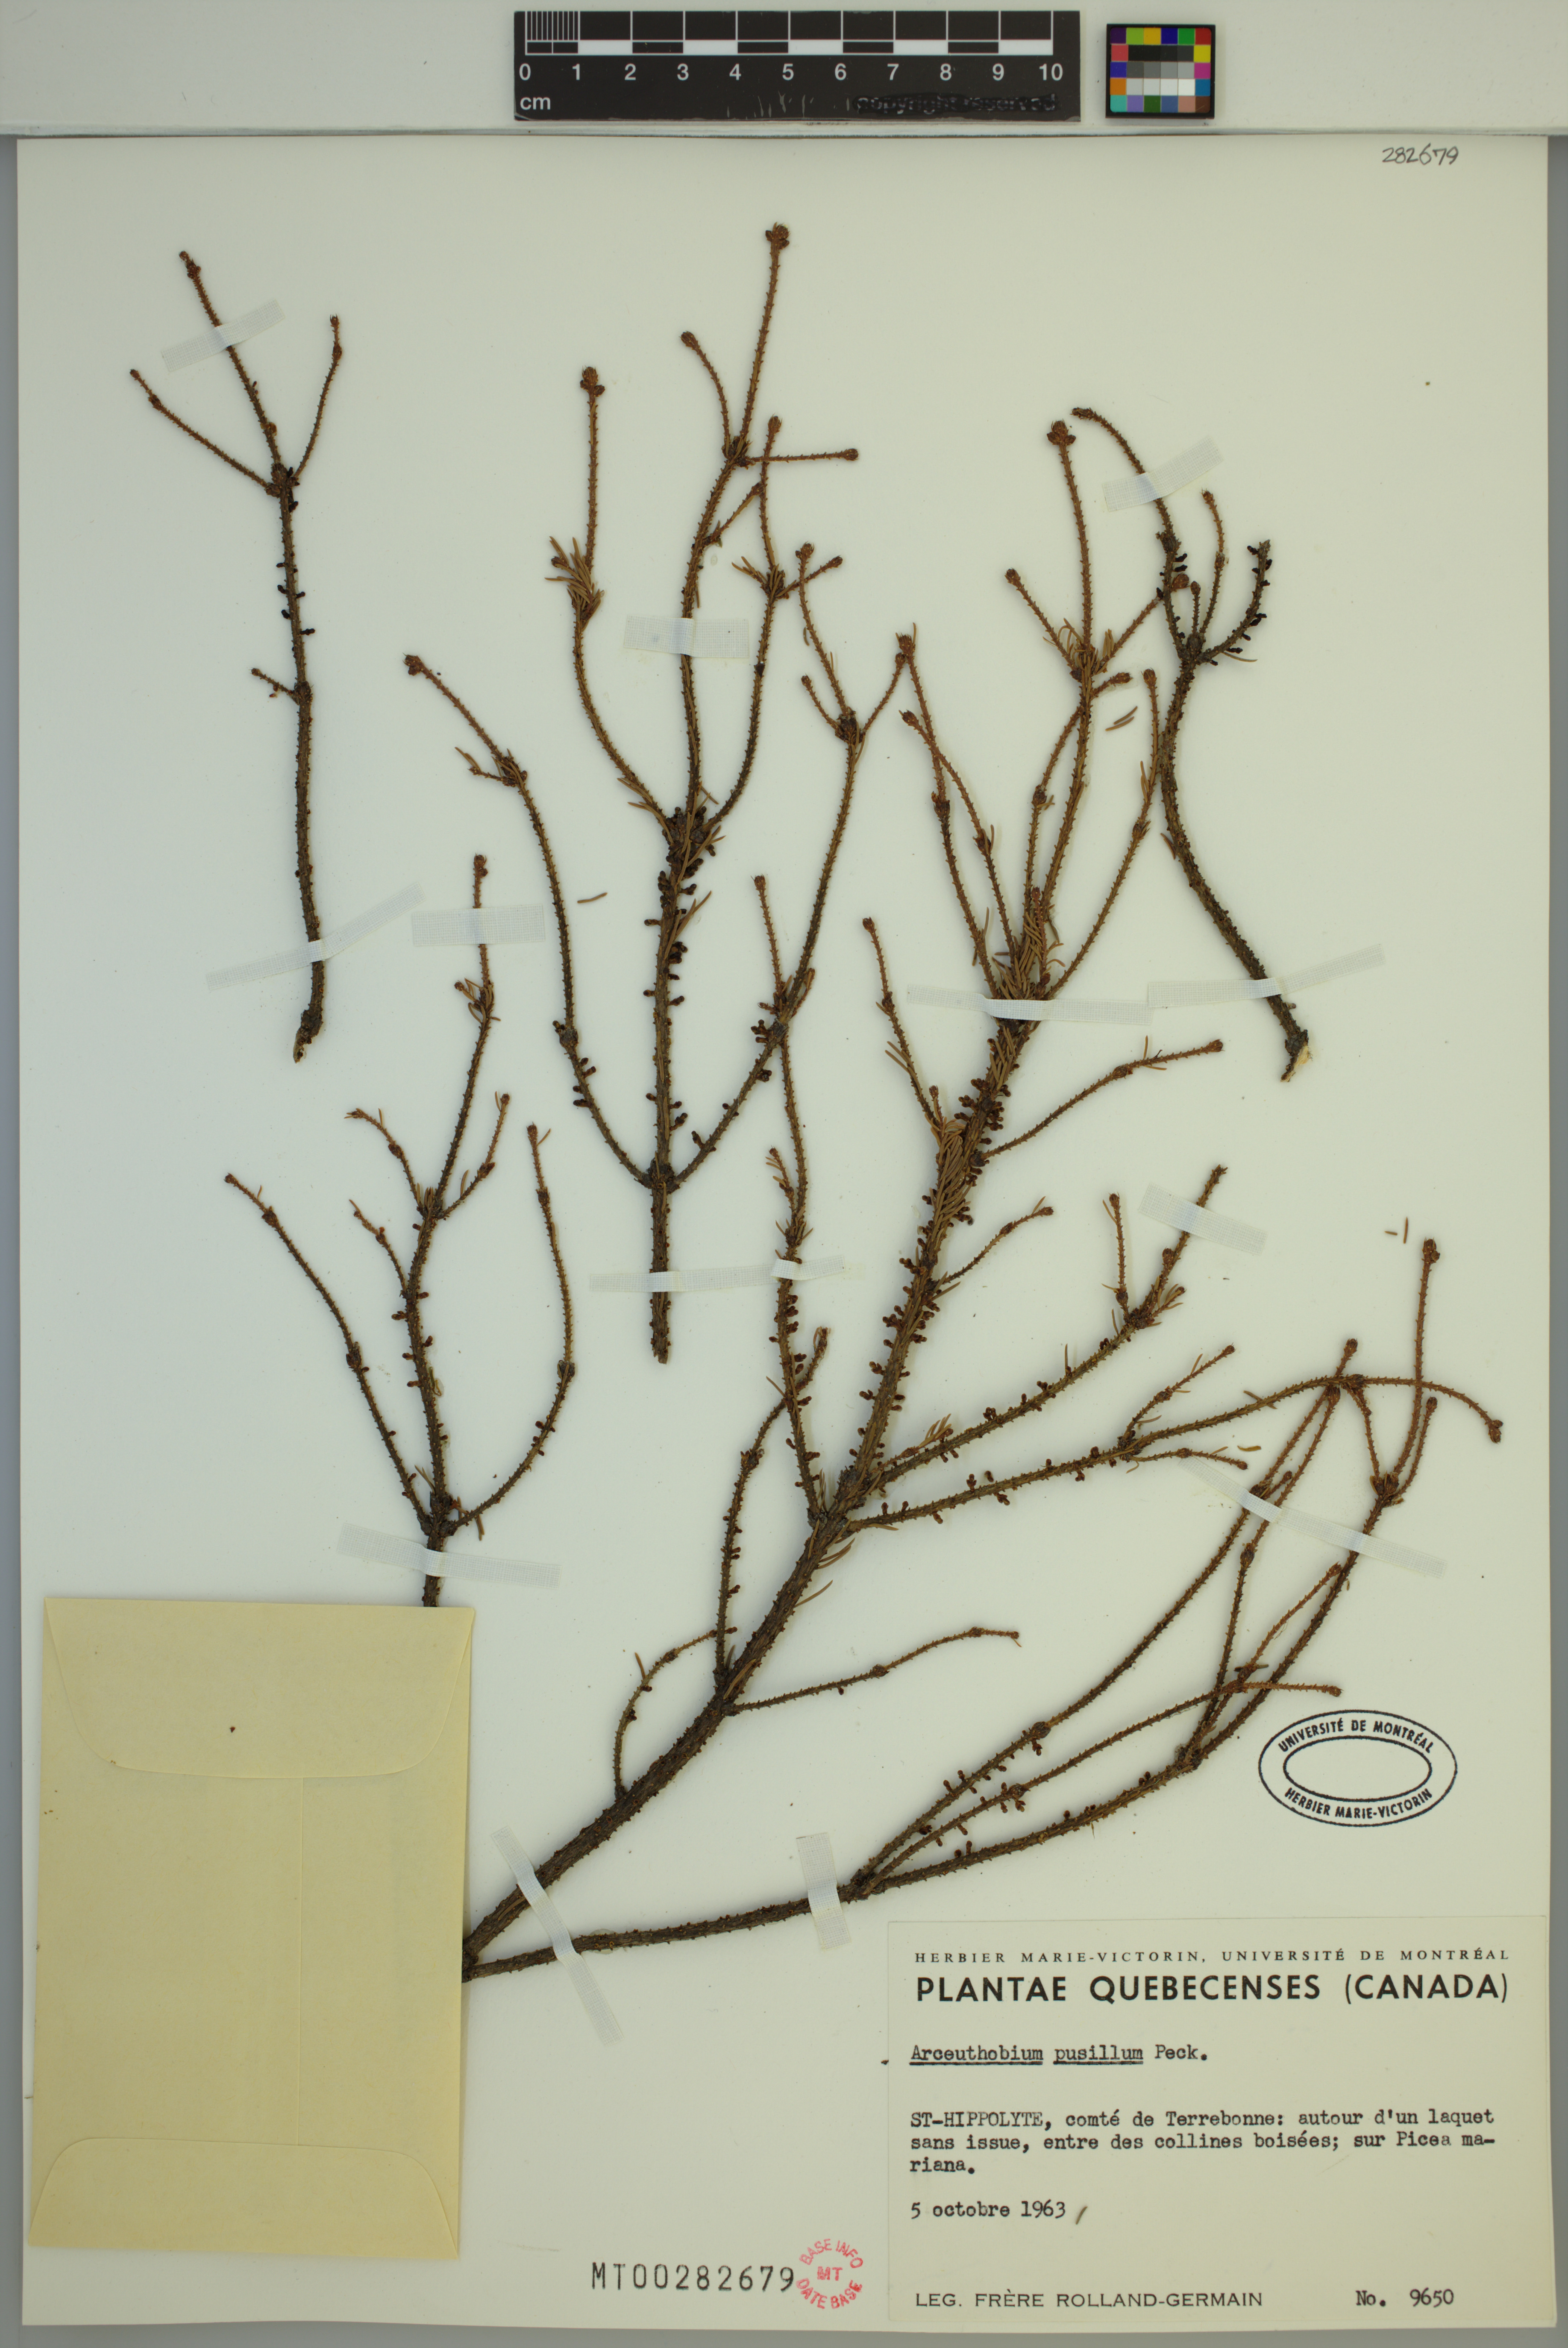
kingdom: Plantae
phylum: Tracheophyta
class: Magnoliopsida
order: Santalales
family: Viscaceae
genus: Arceuthobium
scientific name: Arceuthobium pusillum
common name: Dwarf-mistletoe
